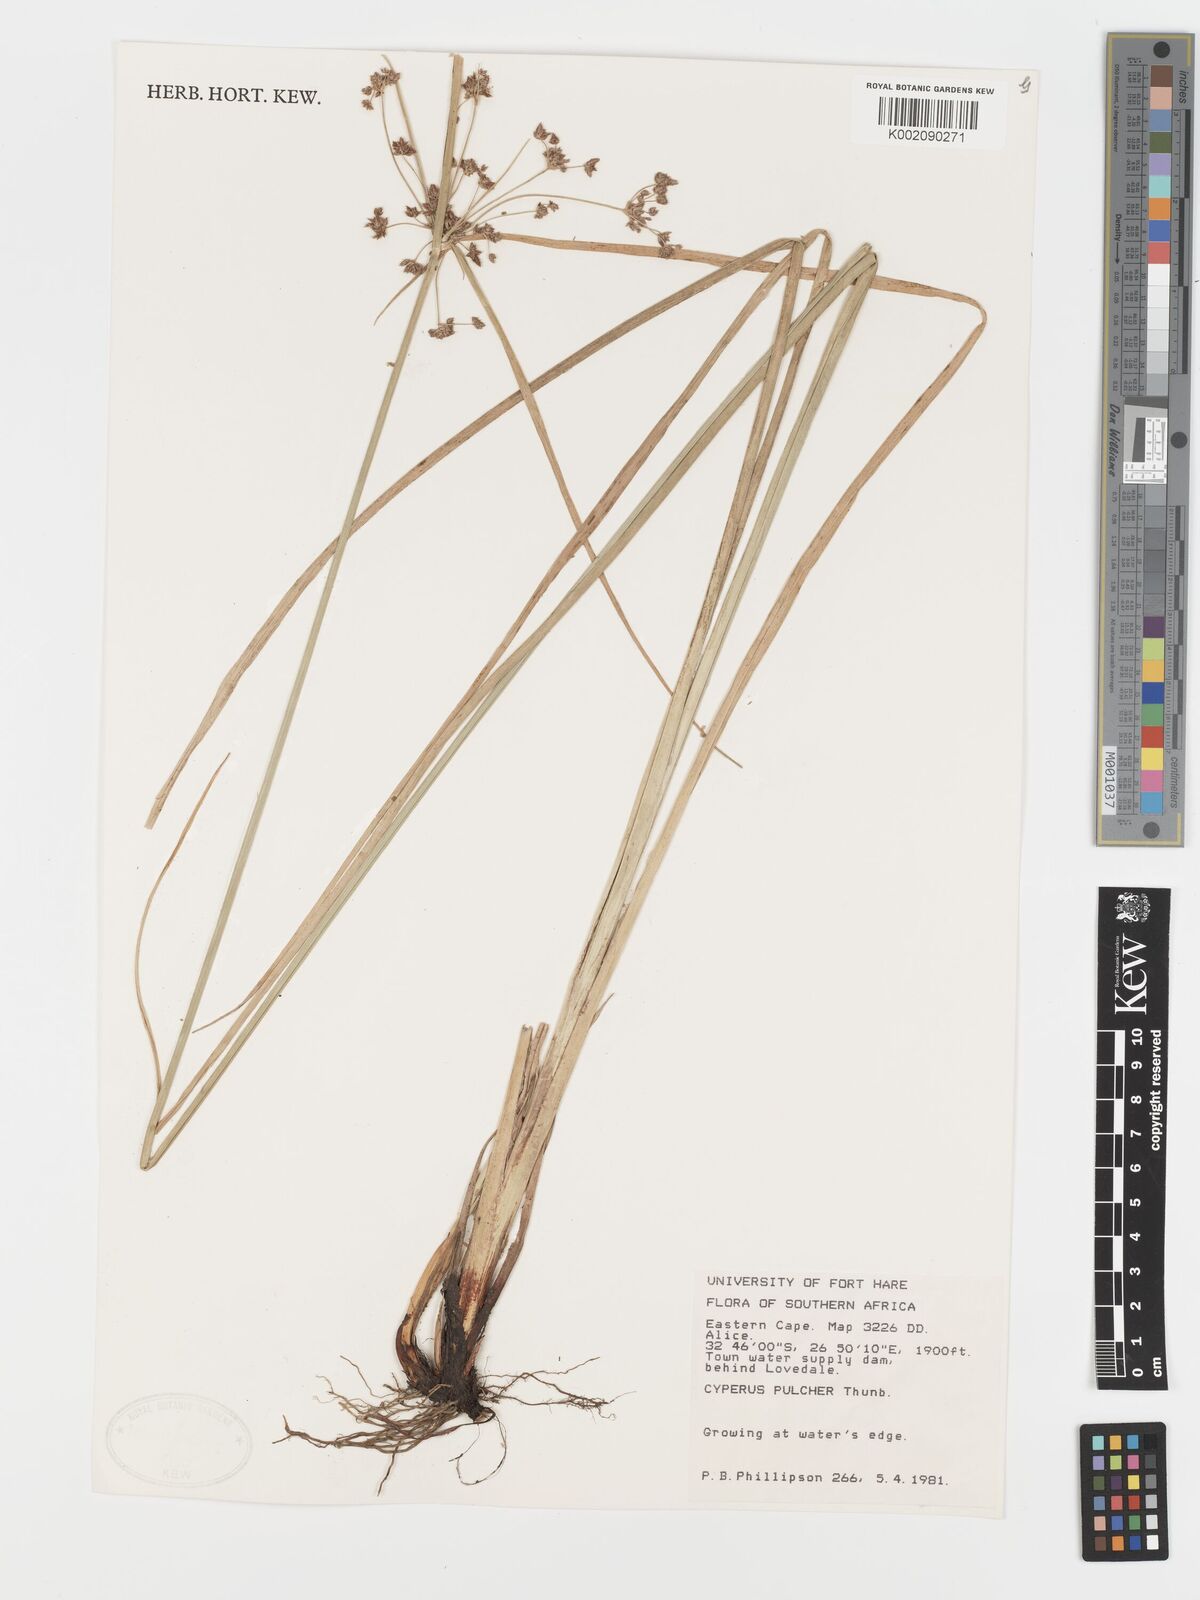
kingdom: Plantae
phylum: Tracheophyta
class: Liliopsida
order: Poales
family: Cyperaceae
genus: Cyperus
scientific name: Cyperus pulcher
